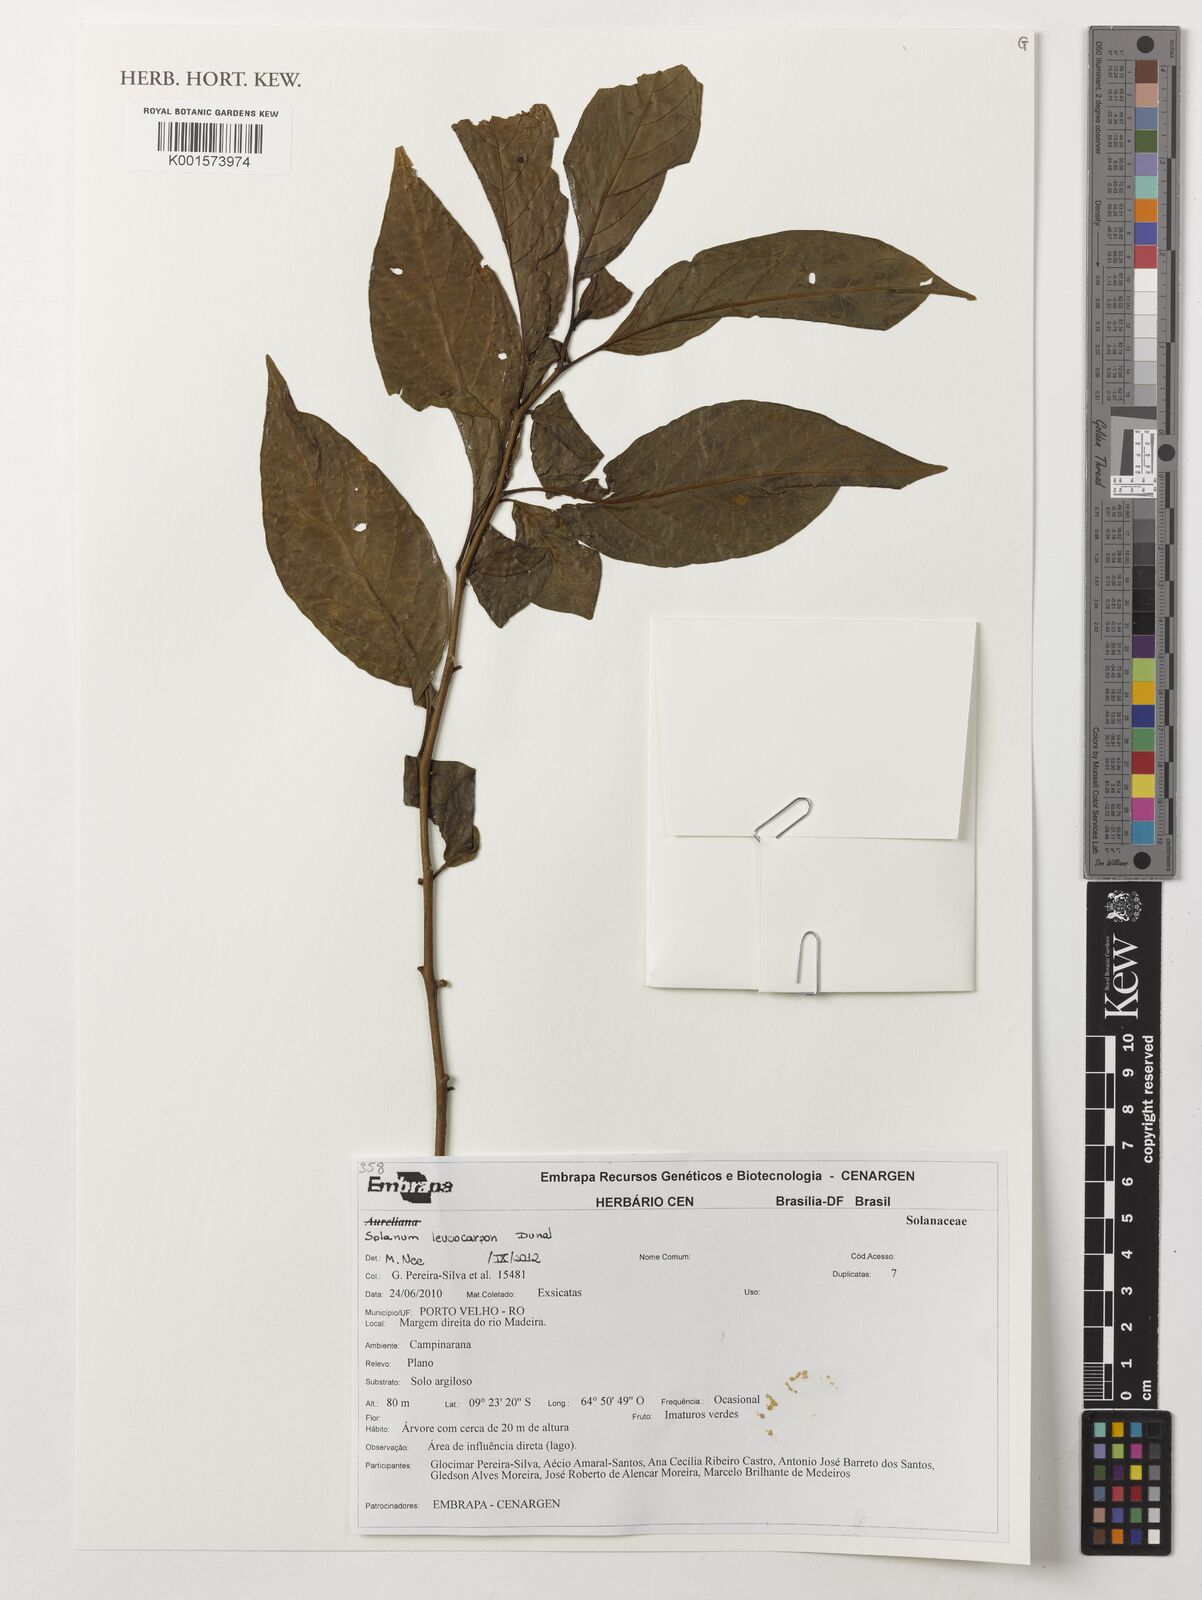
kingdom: Plantae
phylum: Tracheophyta
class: Magnoliopsida
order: Solanales
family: Solanaceae
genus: Solanum
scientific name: Solanum leucocarpon
